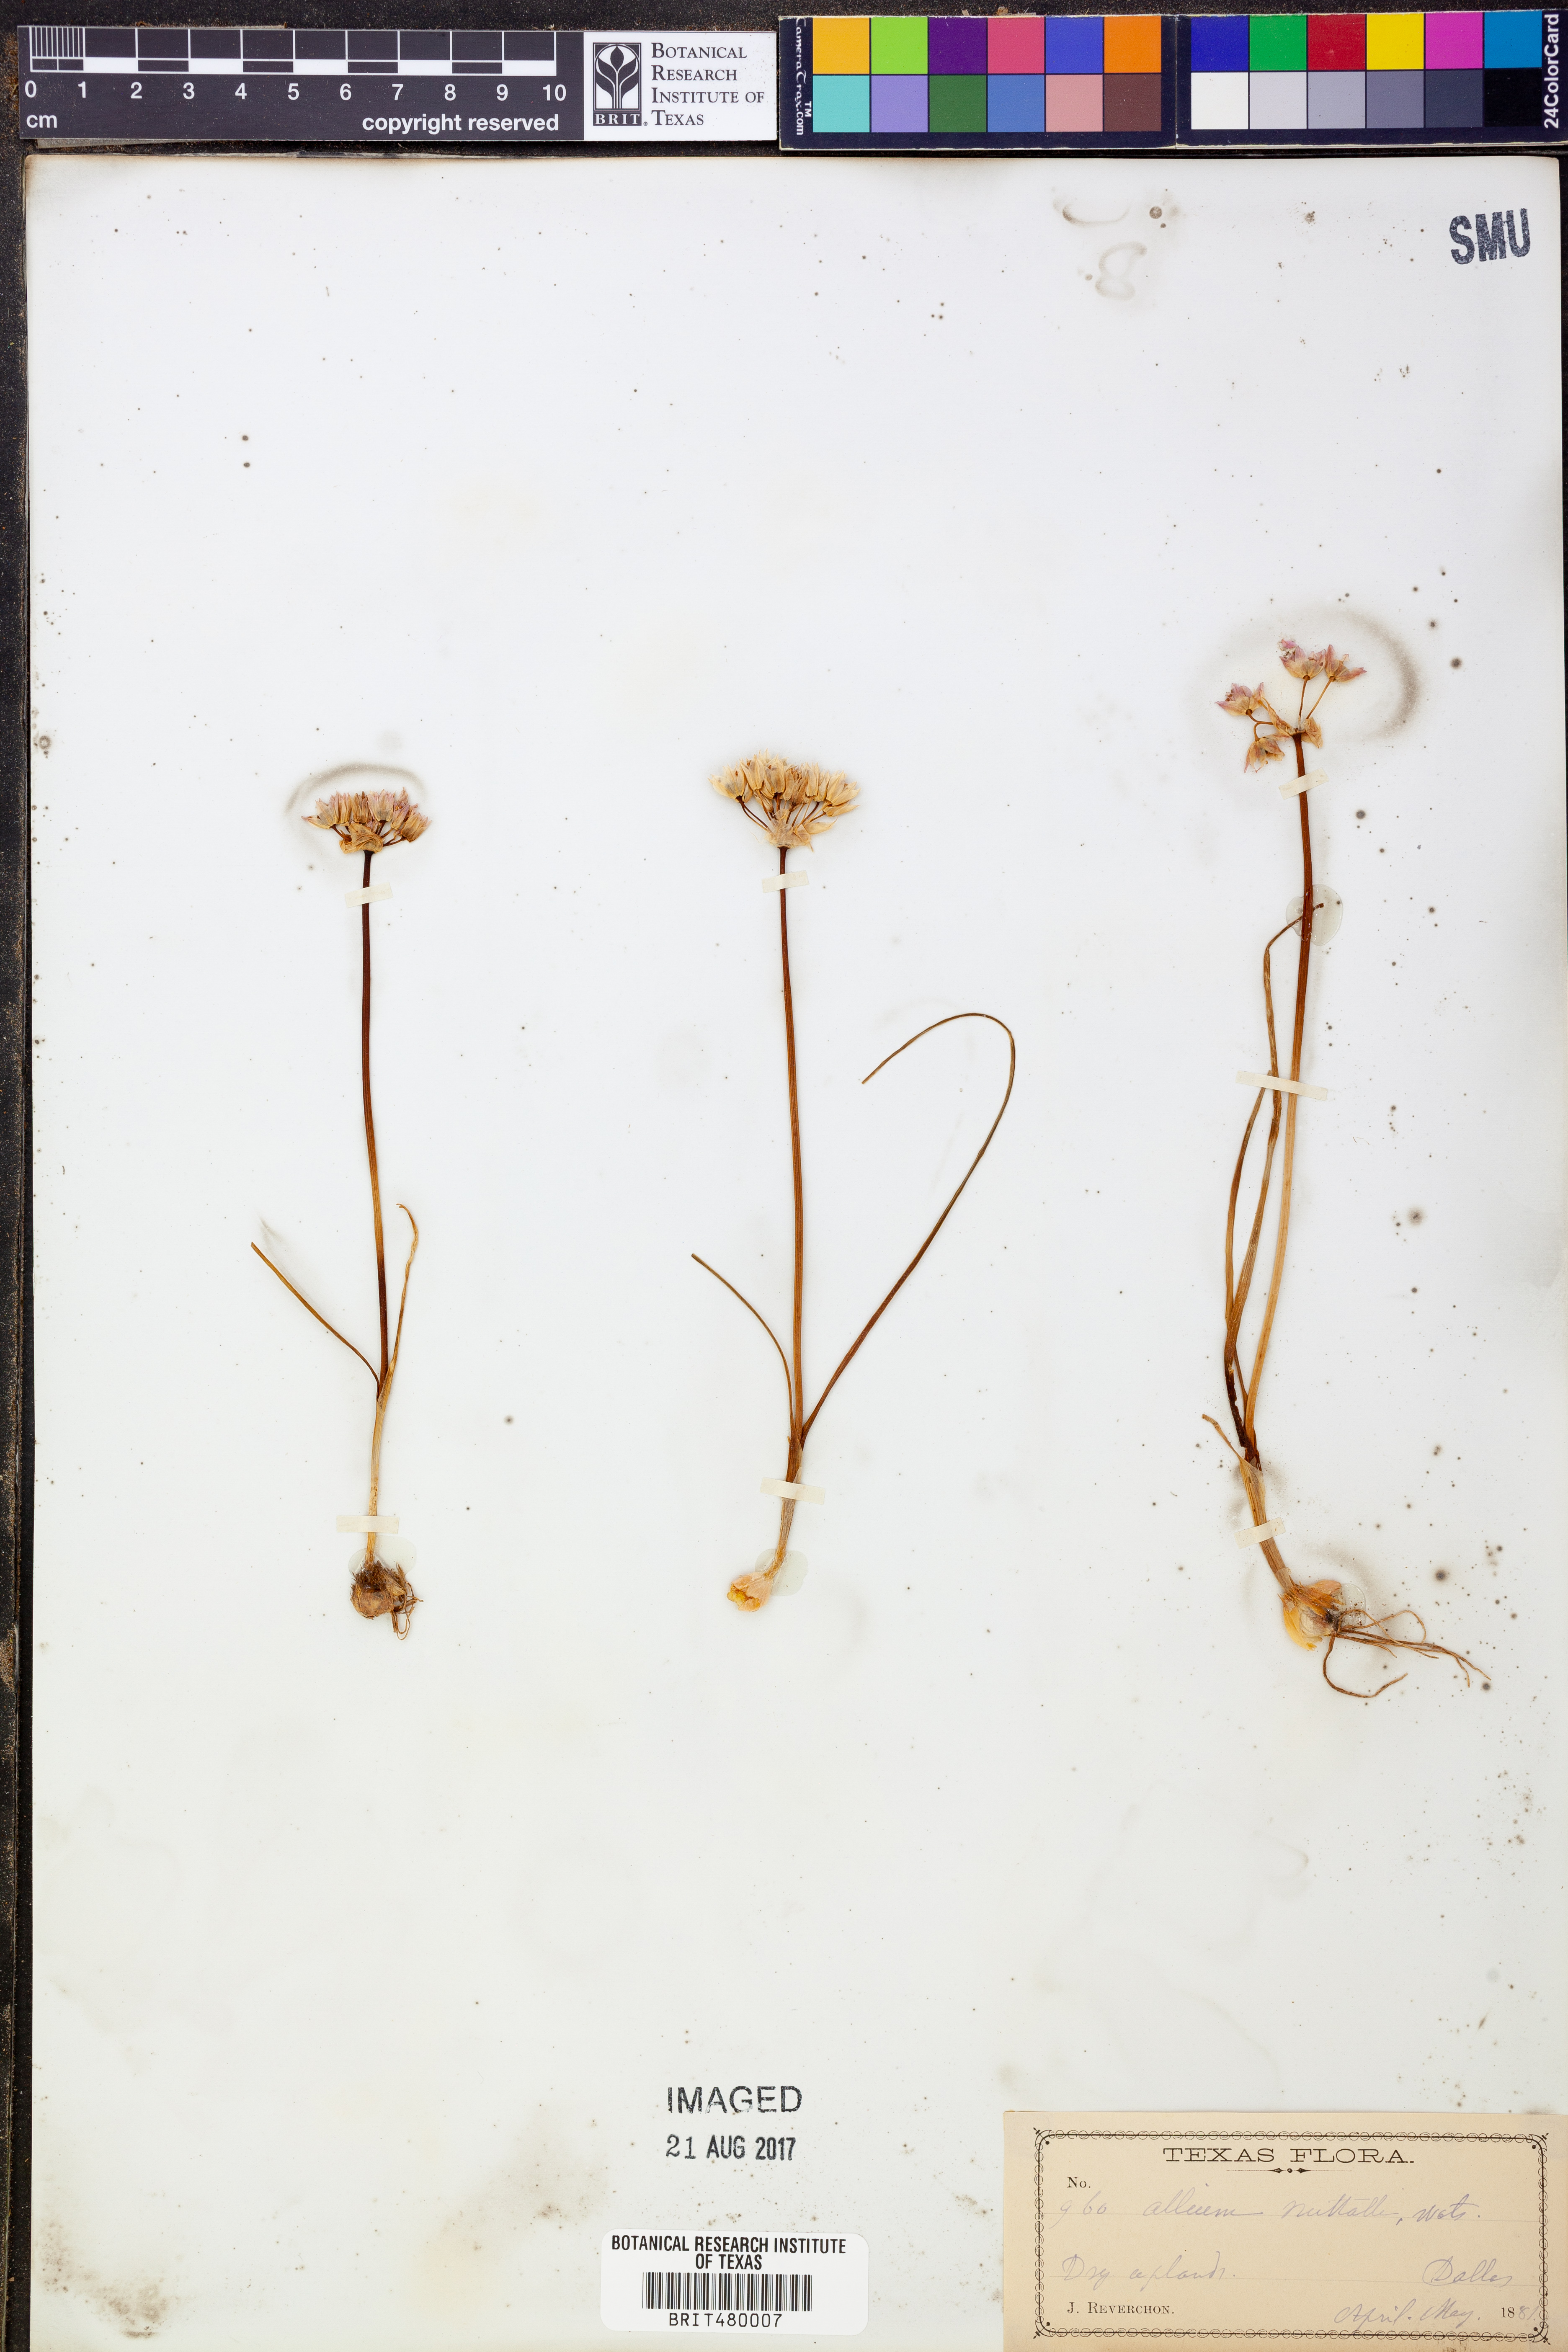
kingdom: Plantae
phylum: Tracheophyta
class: Liliopsida
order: Asparagales
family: Amaryllidaceae
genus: Allium
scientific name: Allium drummondii
